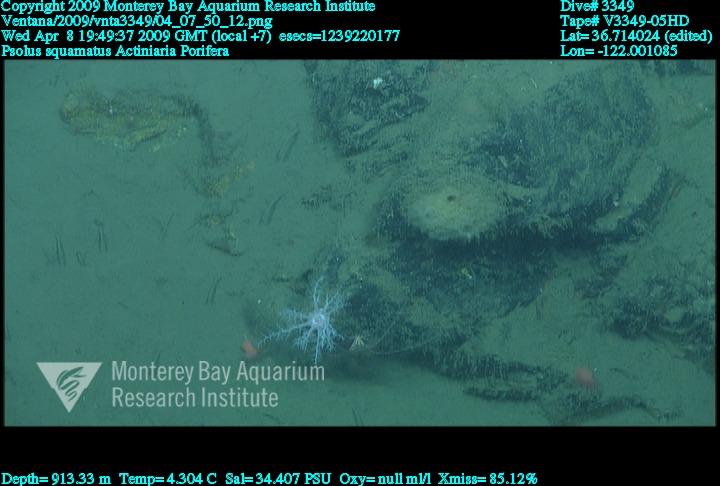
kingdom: Animalia
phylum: Porifera
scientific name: Porifera
